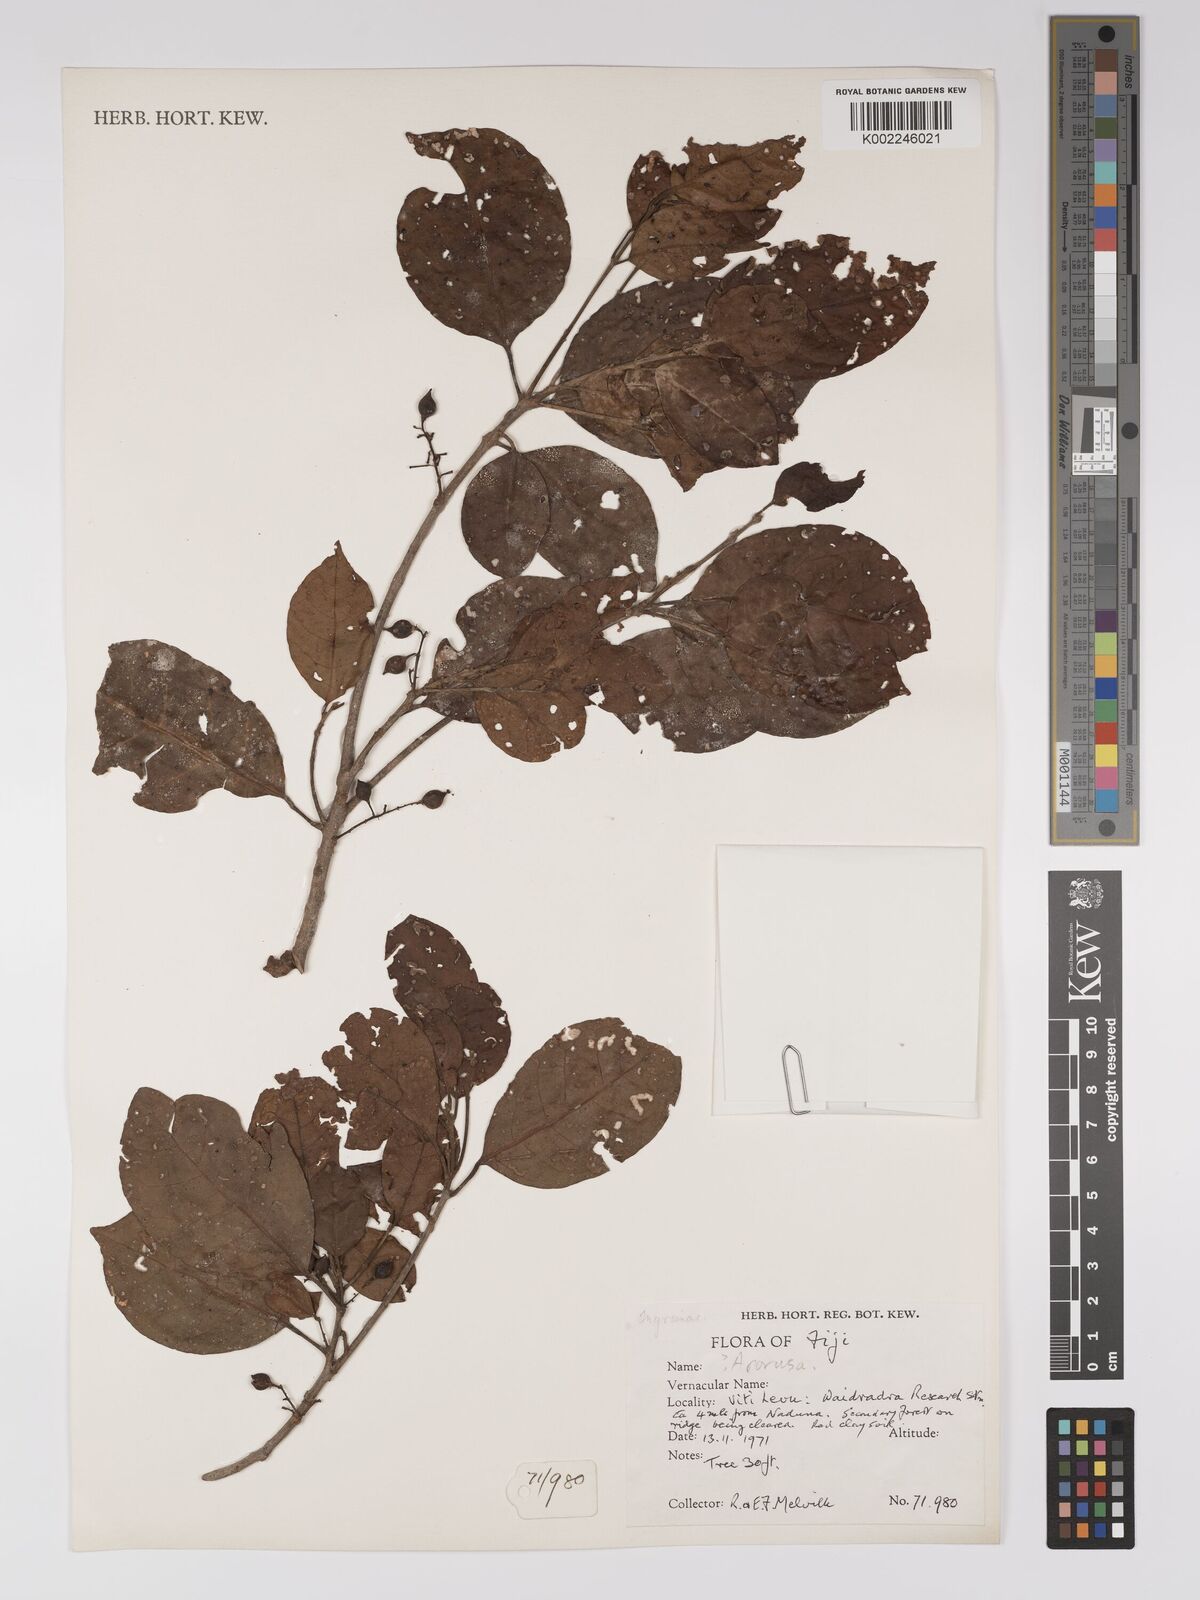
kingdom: Plantae
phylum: Tracheophyta
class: Magnoliopsida
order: Malpighiales
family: Euphorbiaceae
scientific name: Euphorbiaceae
